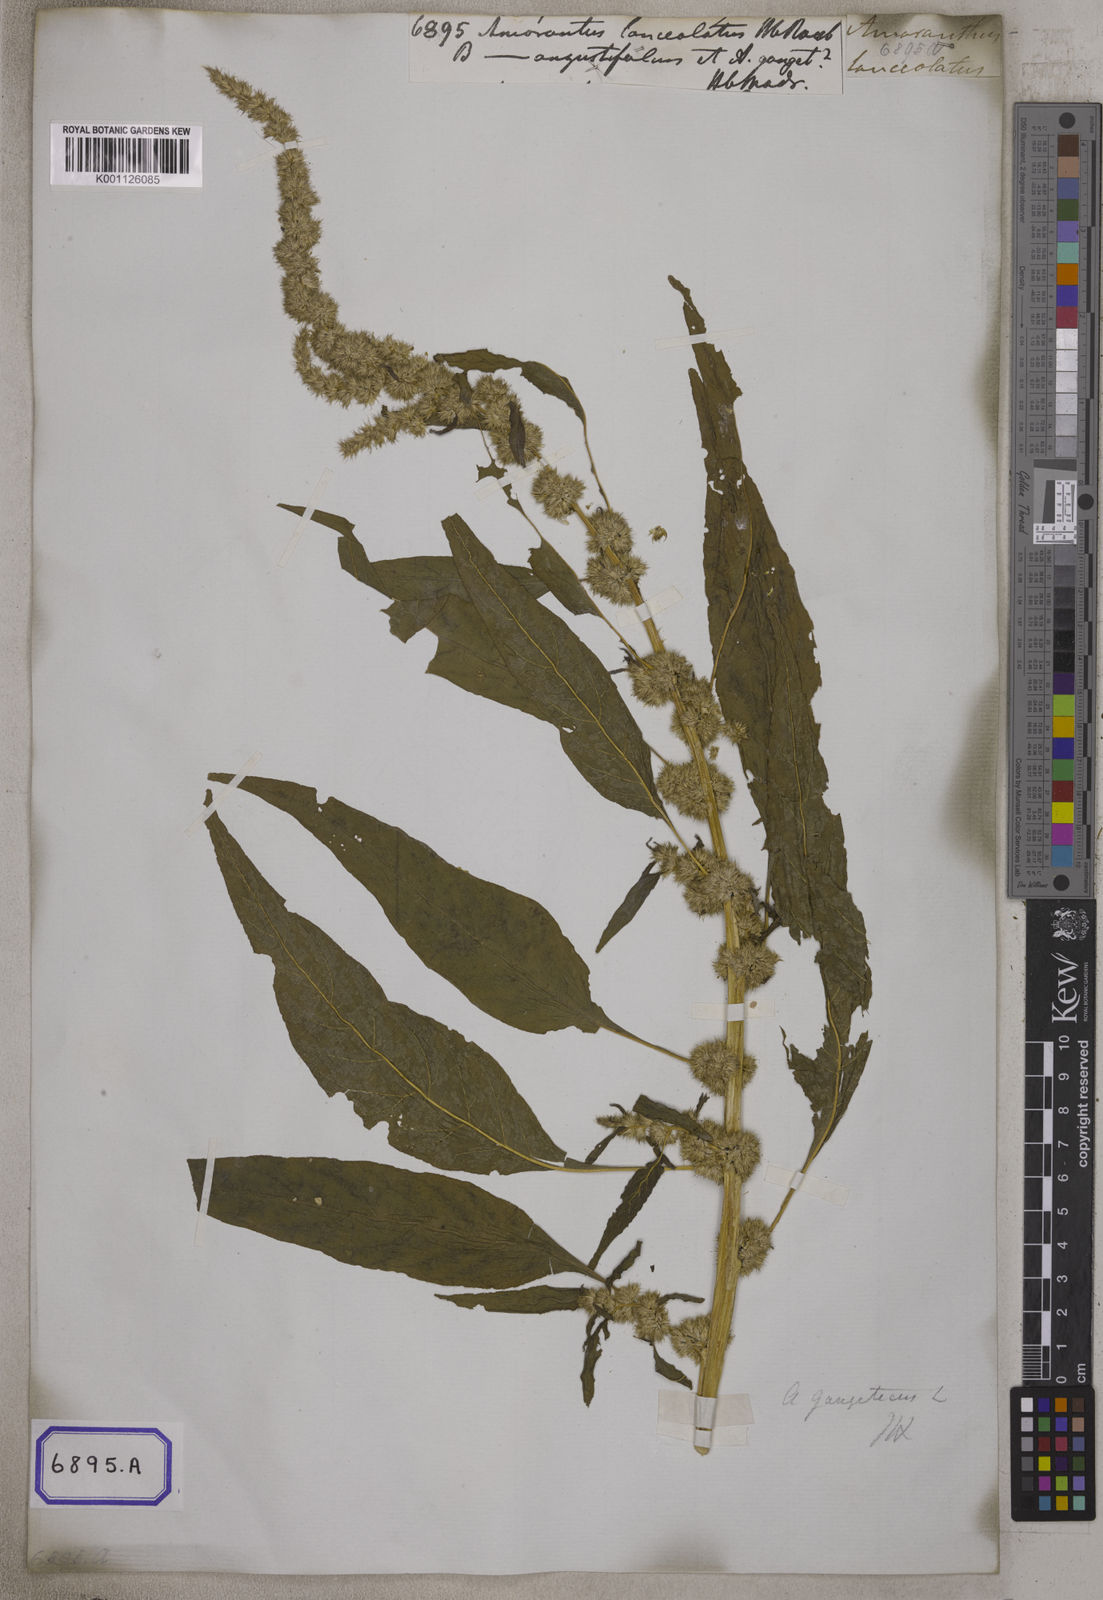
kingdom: Plantae
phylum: Tracheophyta
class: Magnoliopsida
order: Caryophyllales
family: Amaranthaceae
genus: Amaranthus
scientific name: Amaranthus tricolor
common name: Joseph's-coat
